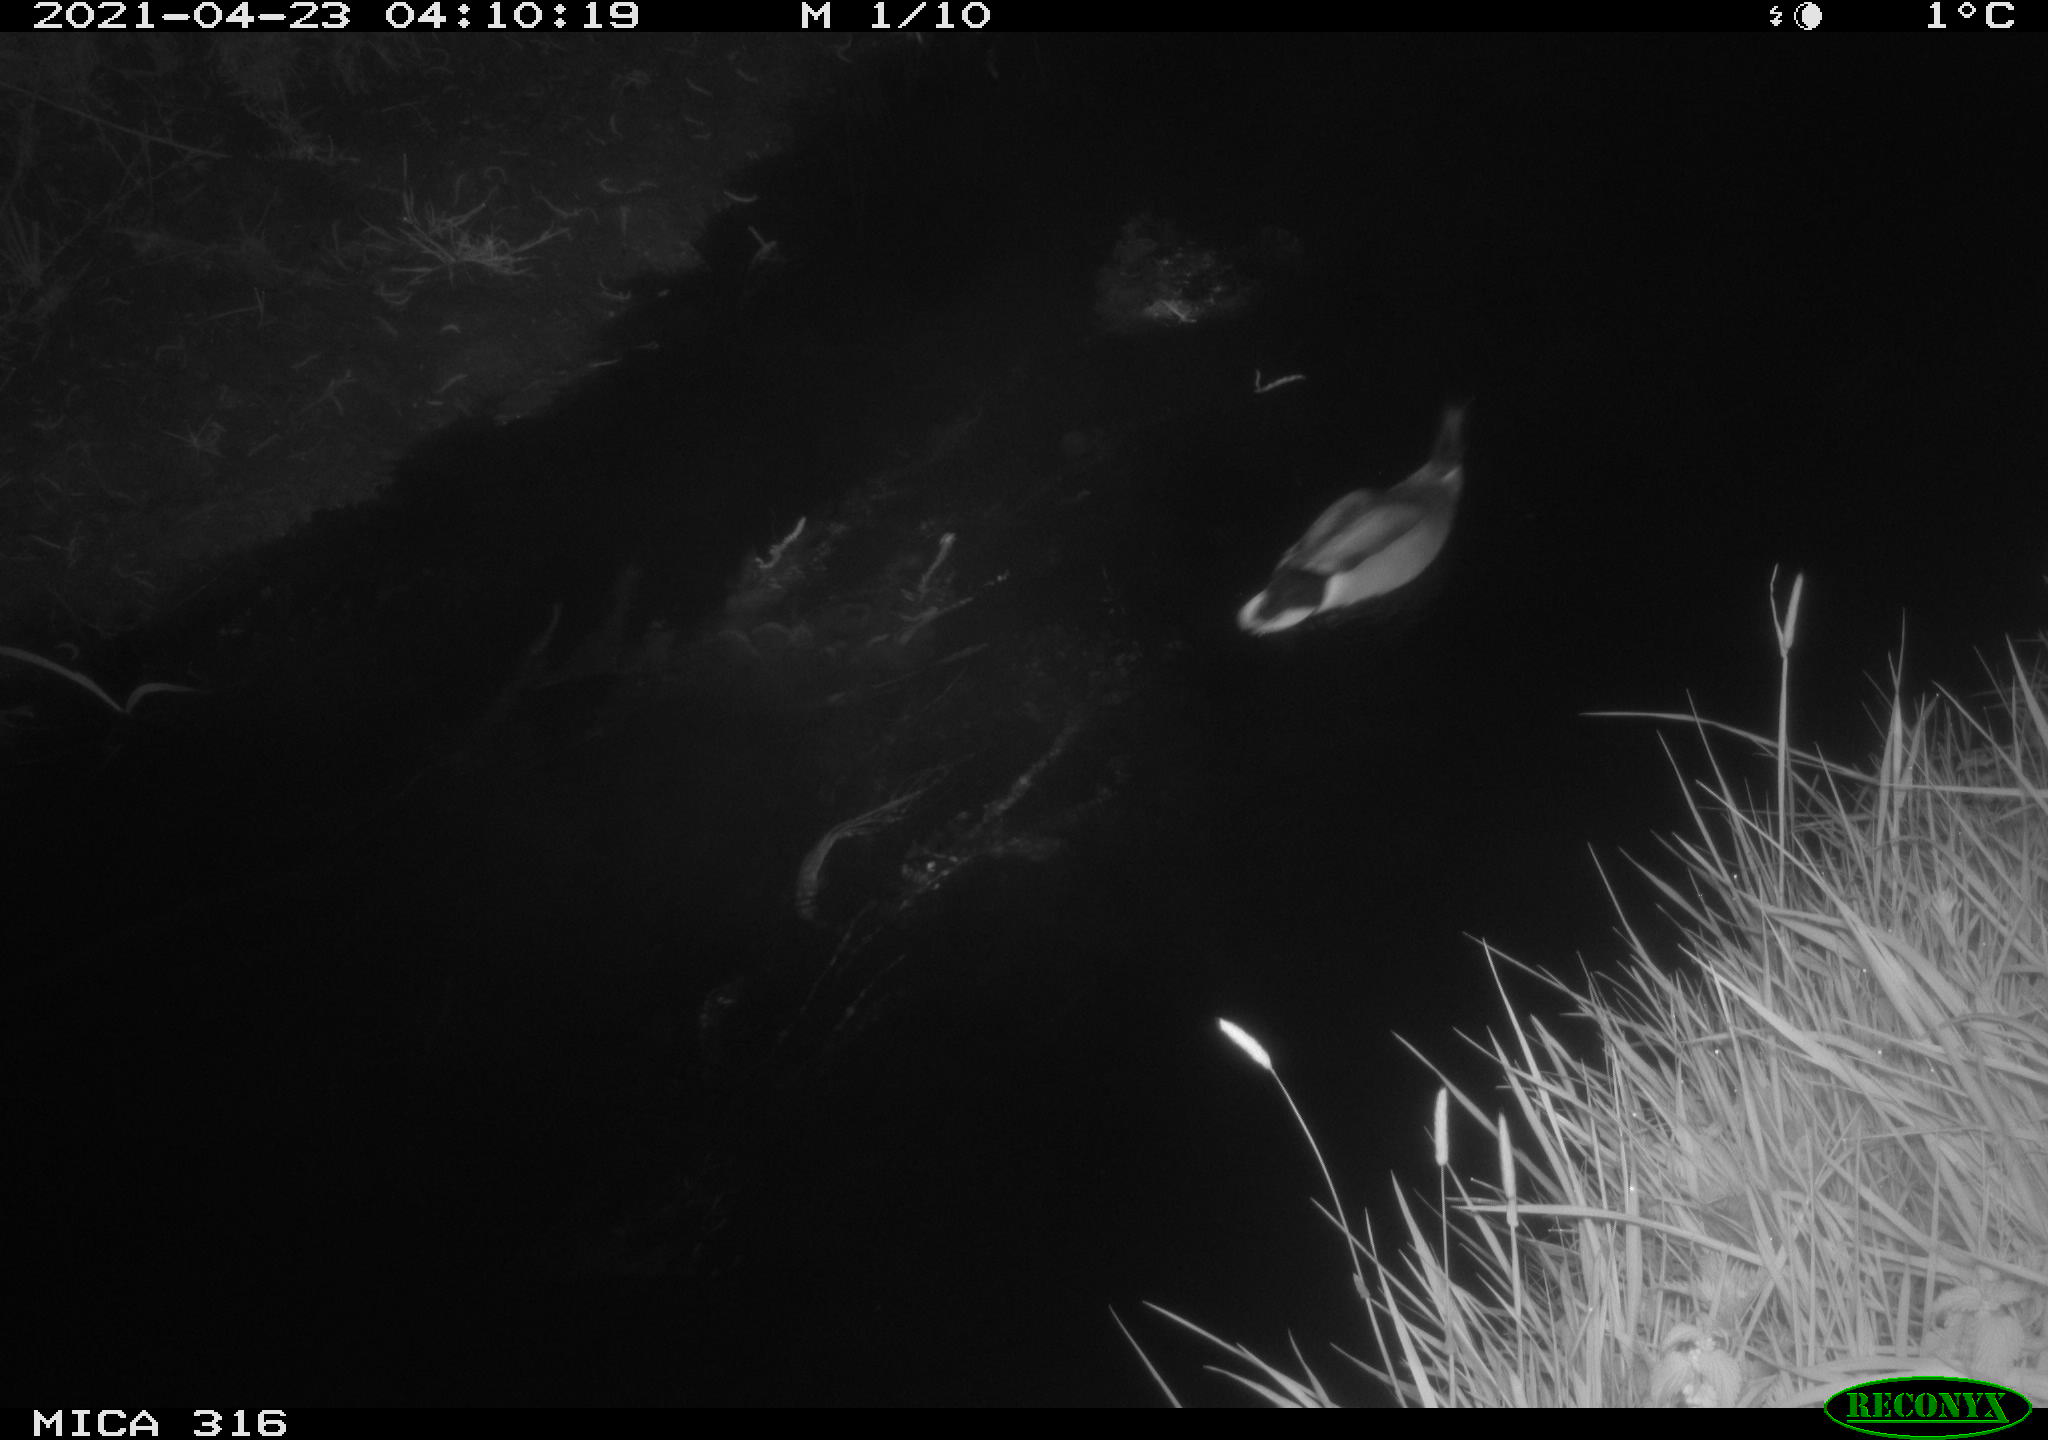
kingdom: Animalia
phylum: Chordata
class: Aves
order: Anseriformes
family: Anatidae
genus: Anas
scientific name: Anas platyrhynchos
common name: Mallard
